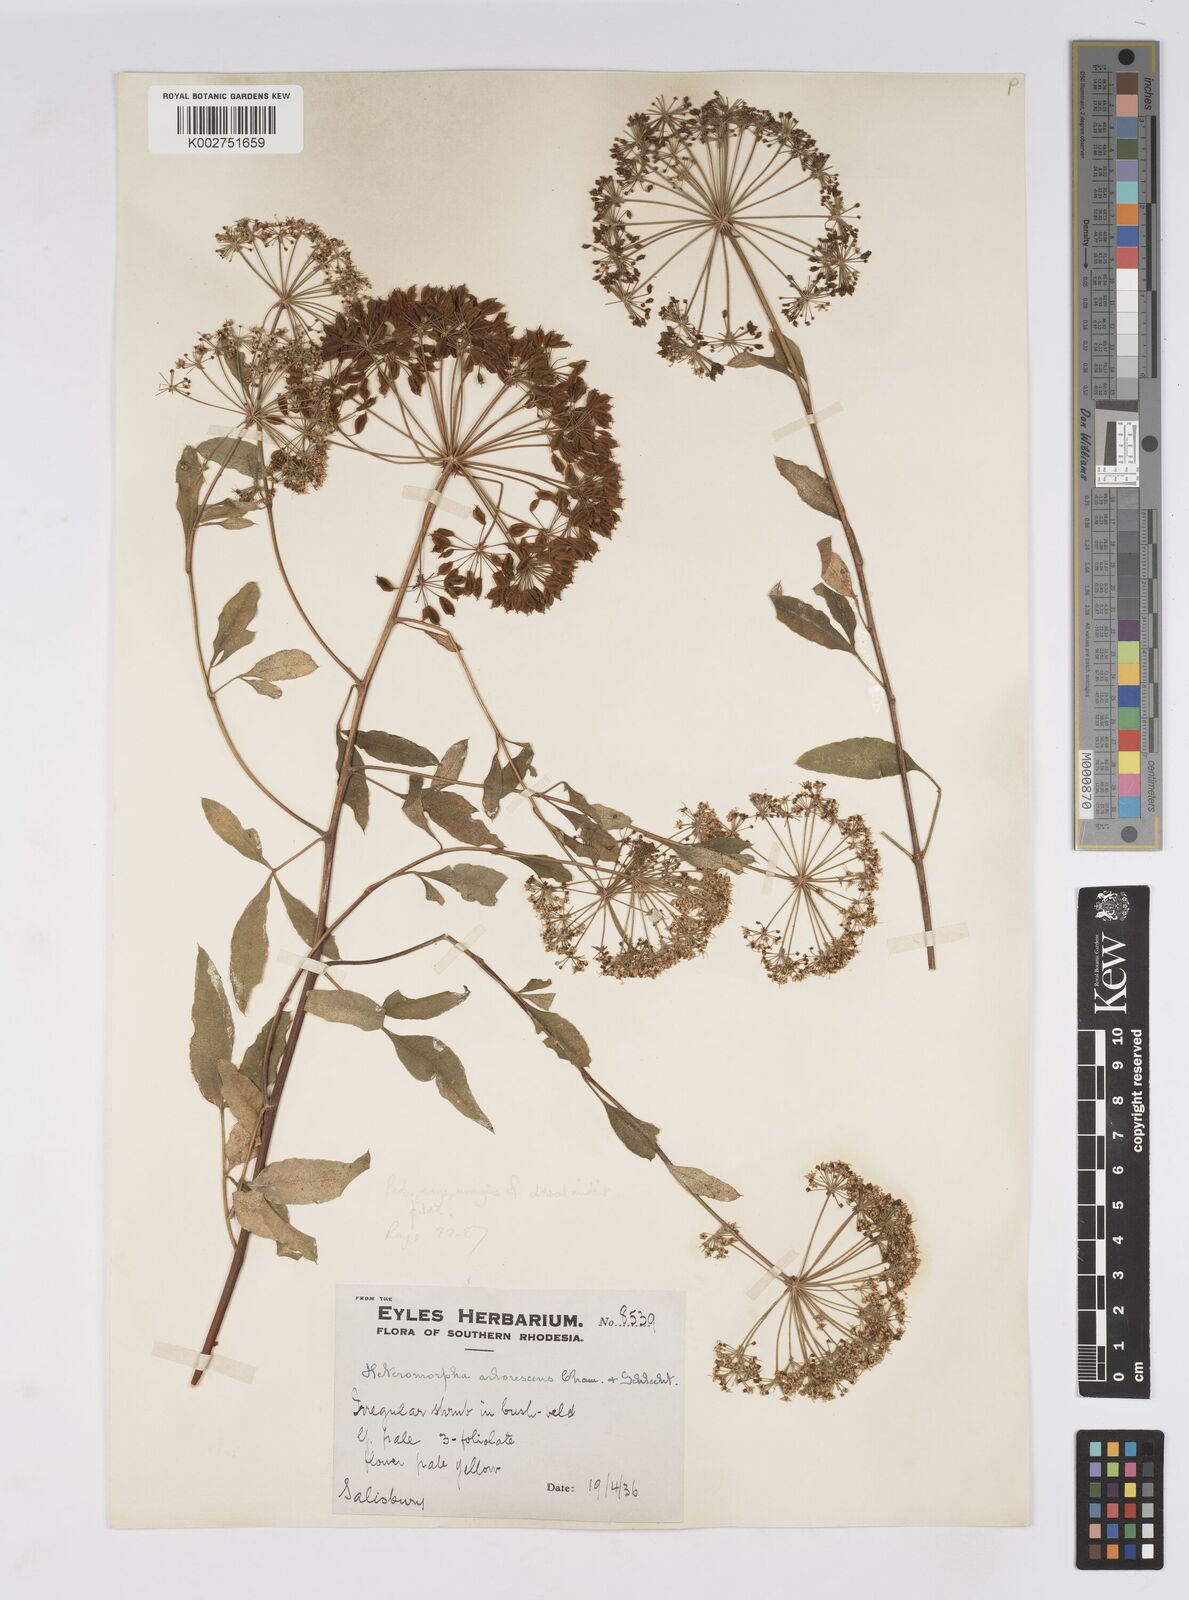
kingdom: Plantae
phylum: Tracheophyta
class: Magnoliopsida
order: Apiales
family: Apiaceae
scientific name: Apiaceae
